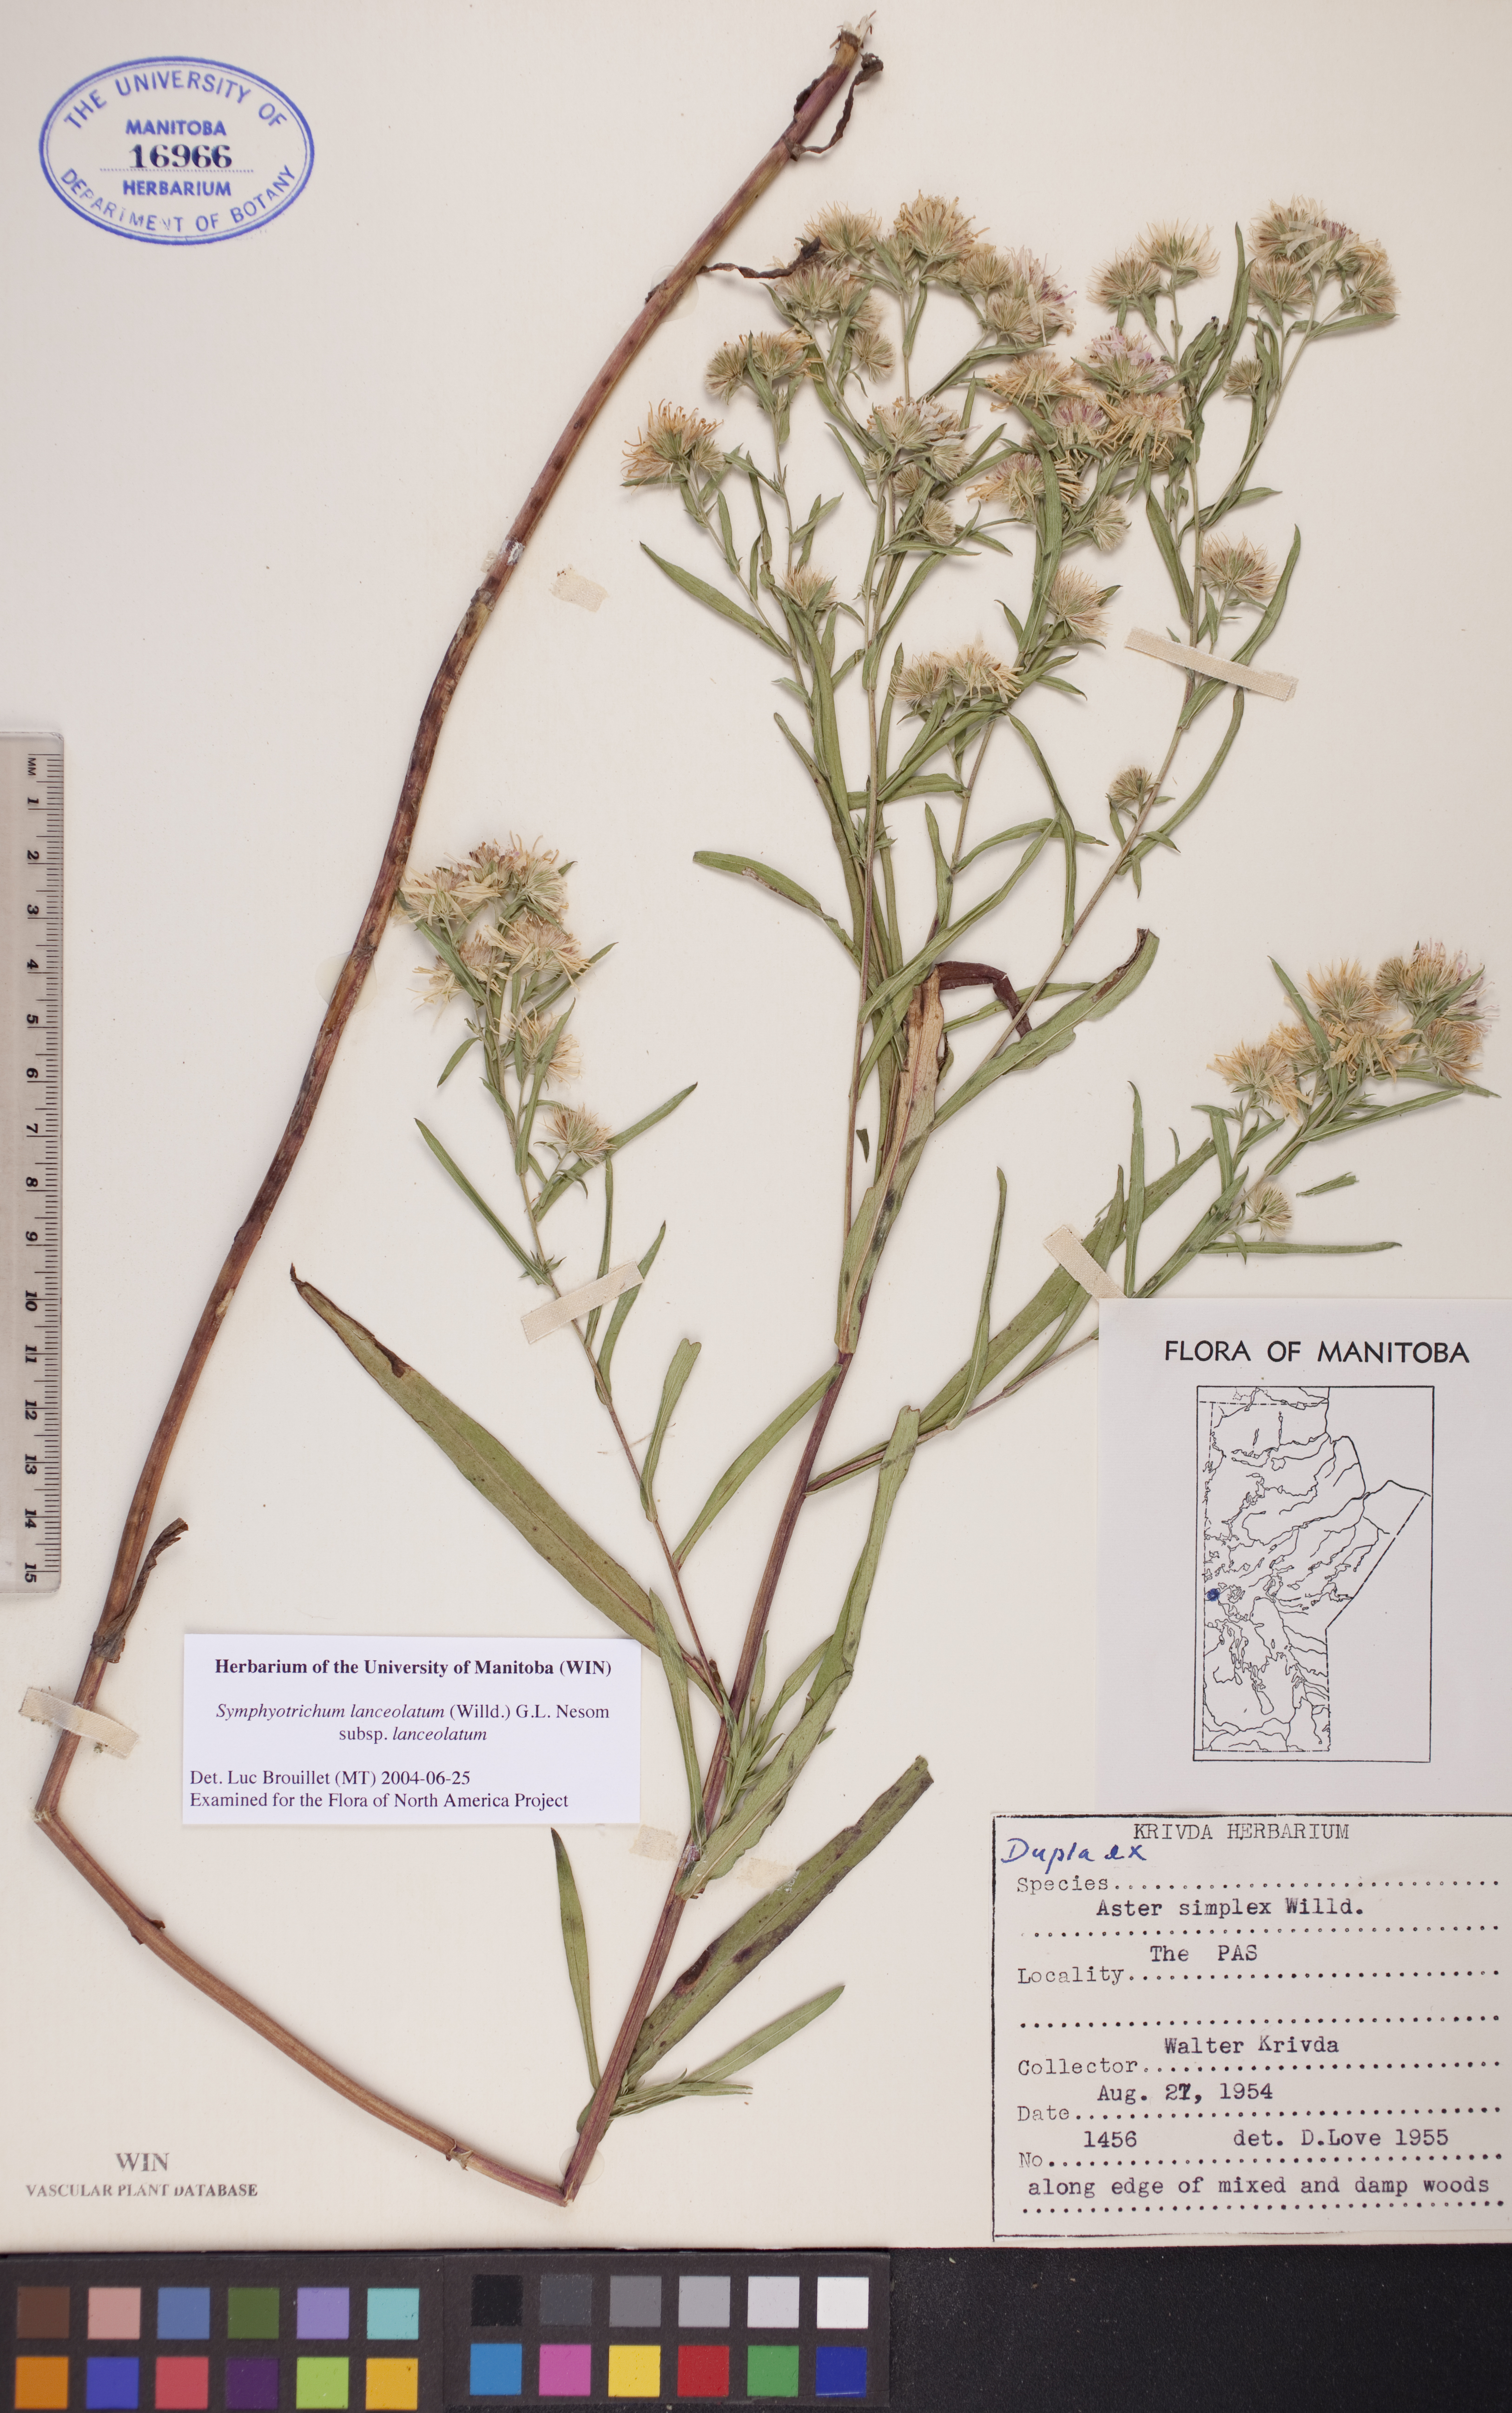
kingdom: Plantae
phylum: Tracheophyta
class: Magnoliopsida
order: Asterales
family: Asteraceae
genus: Symphyotrichum
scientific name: Symphyotrichum lanceolatum
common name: Panicled aster
